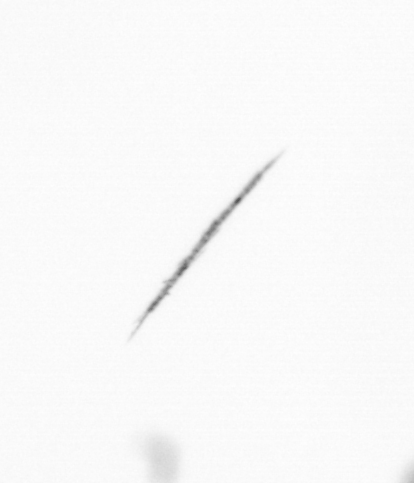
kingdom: Chromista
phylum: Ochrophyta
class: Bacillariophyceae
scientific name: Bacillariophyceae
